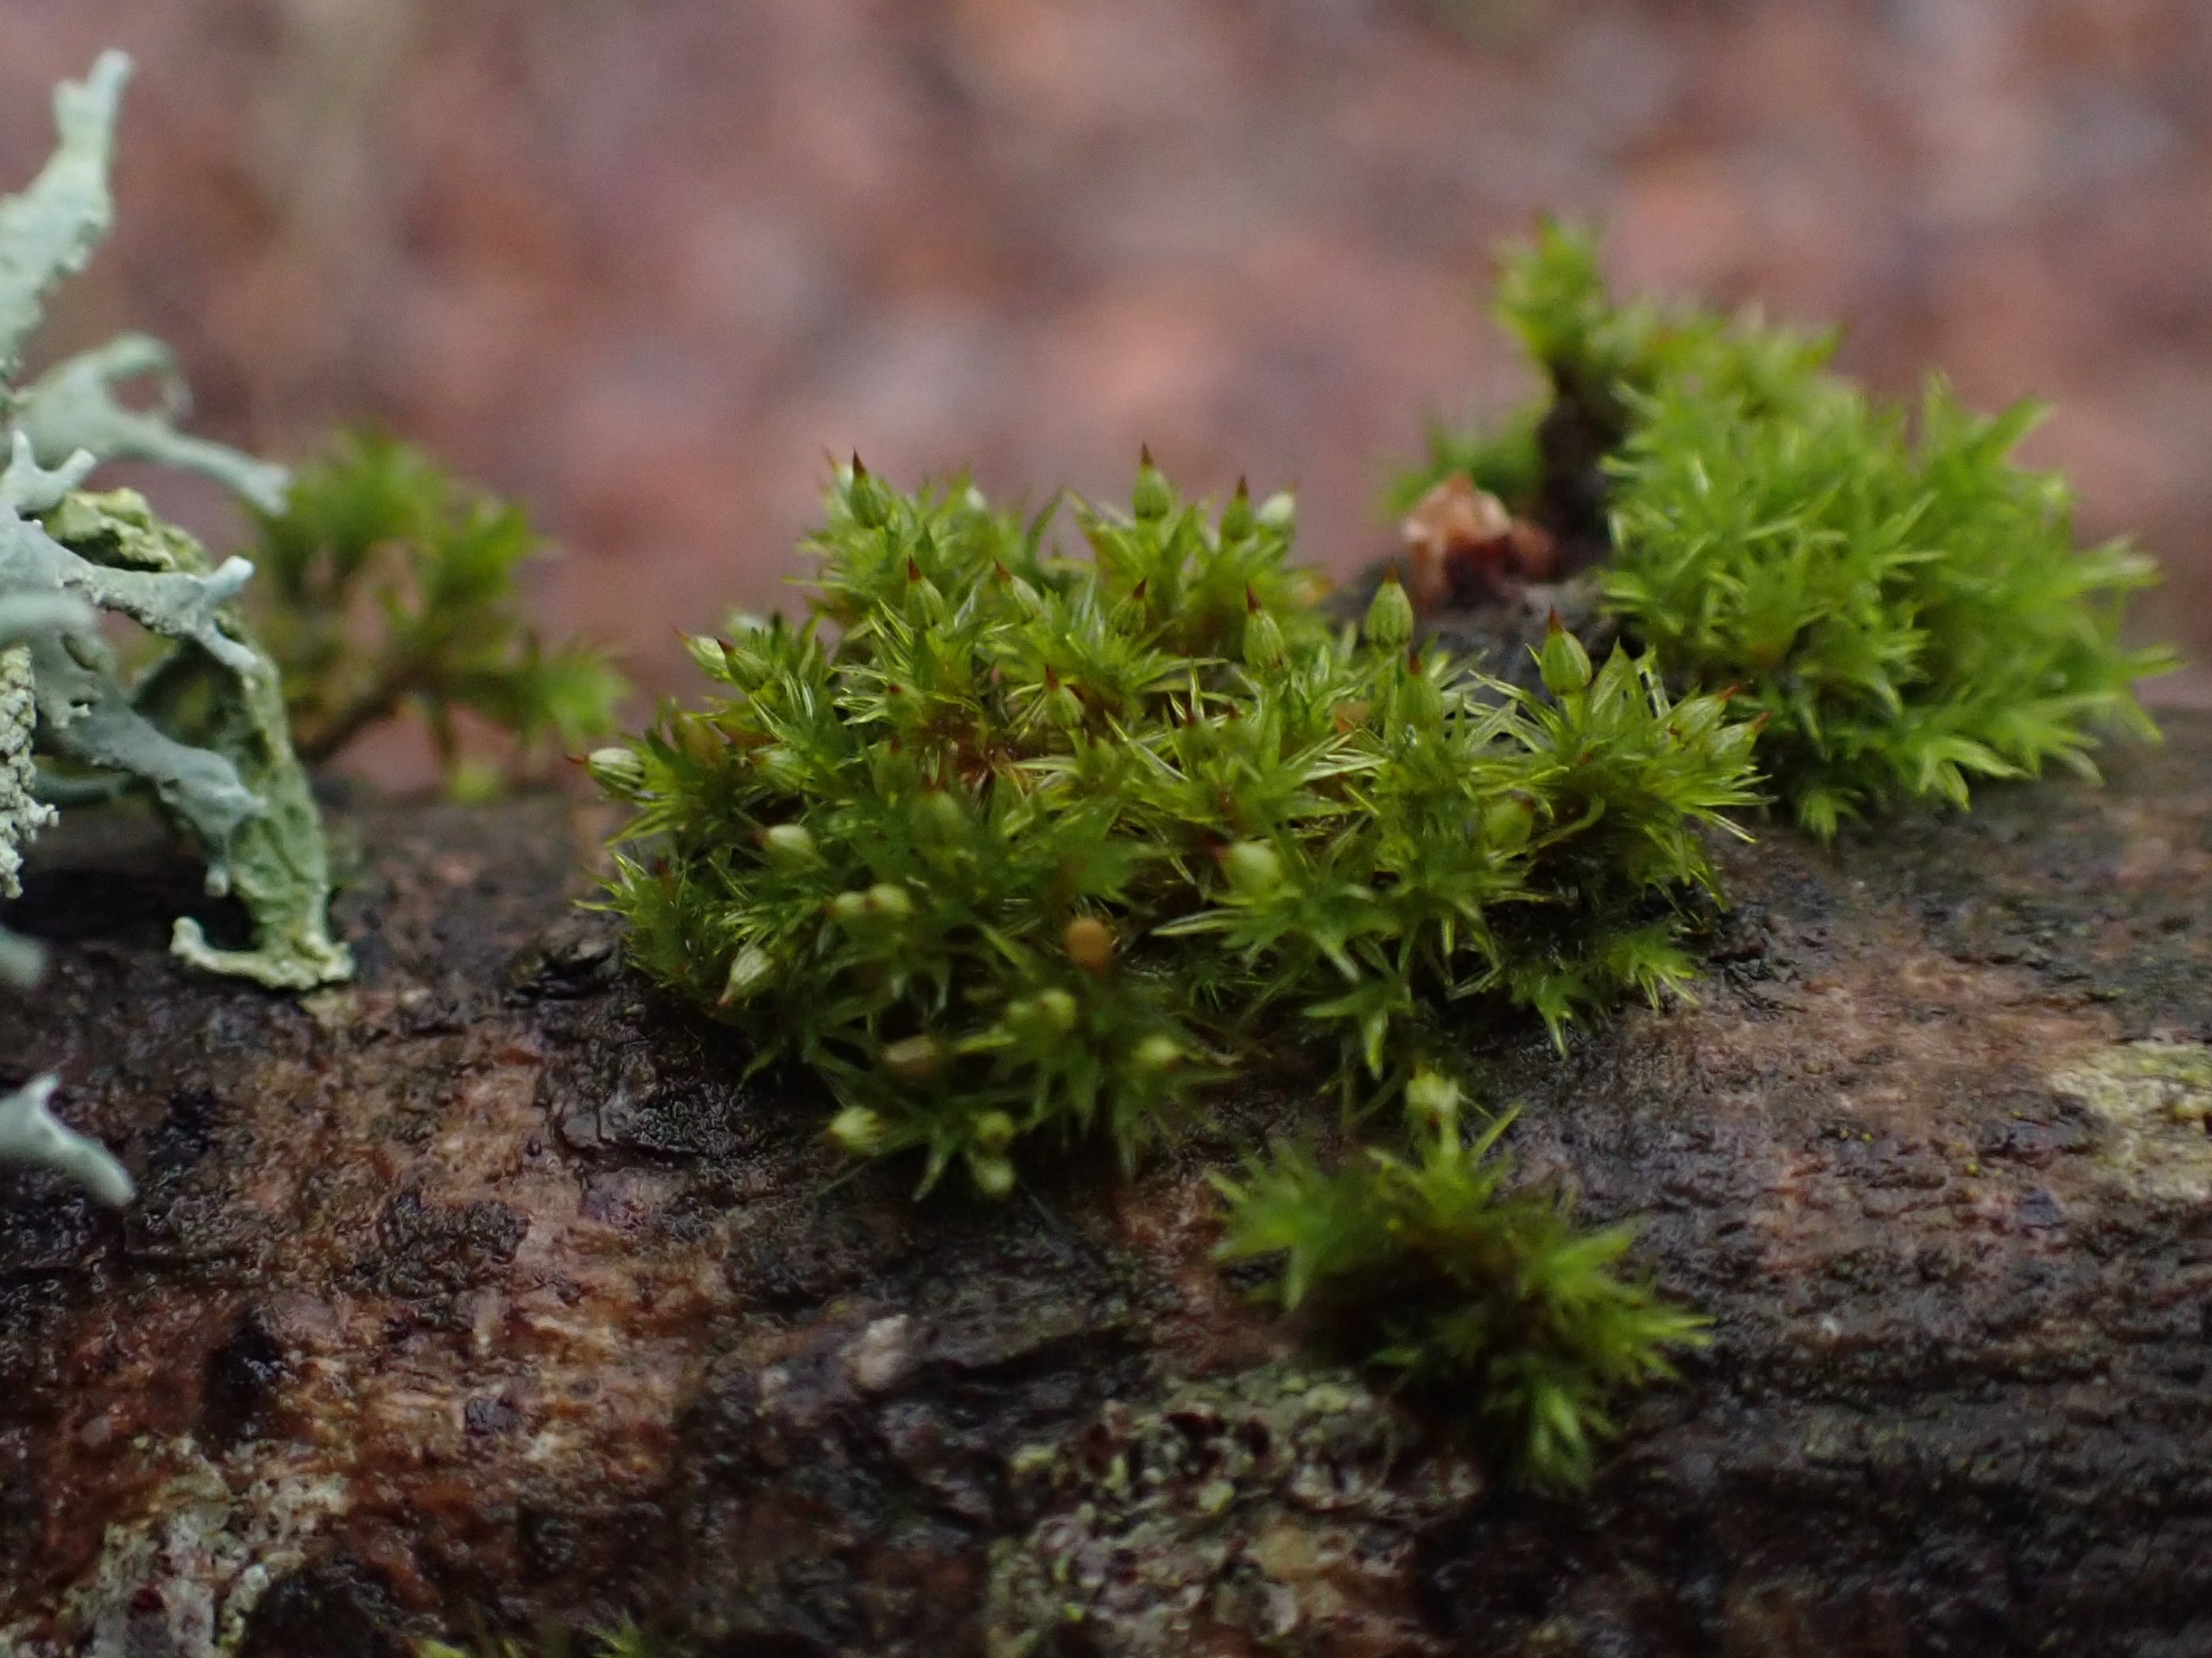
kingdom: Plantae
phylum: Bryophyta
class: Bryopsida
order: Orthotrichales
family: Orthotrichaceae
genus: Orthotrichum
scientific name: Orthotrichum pulchellum
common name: Smuk furehætte
